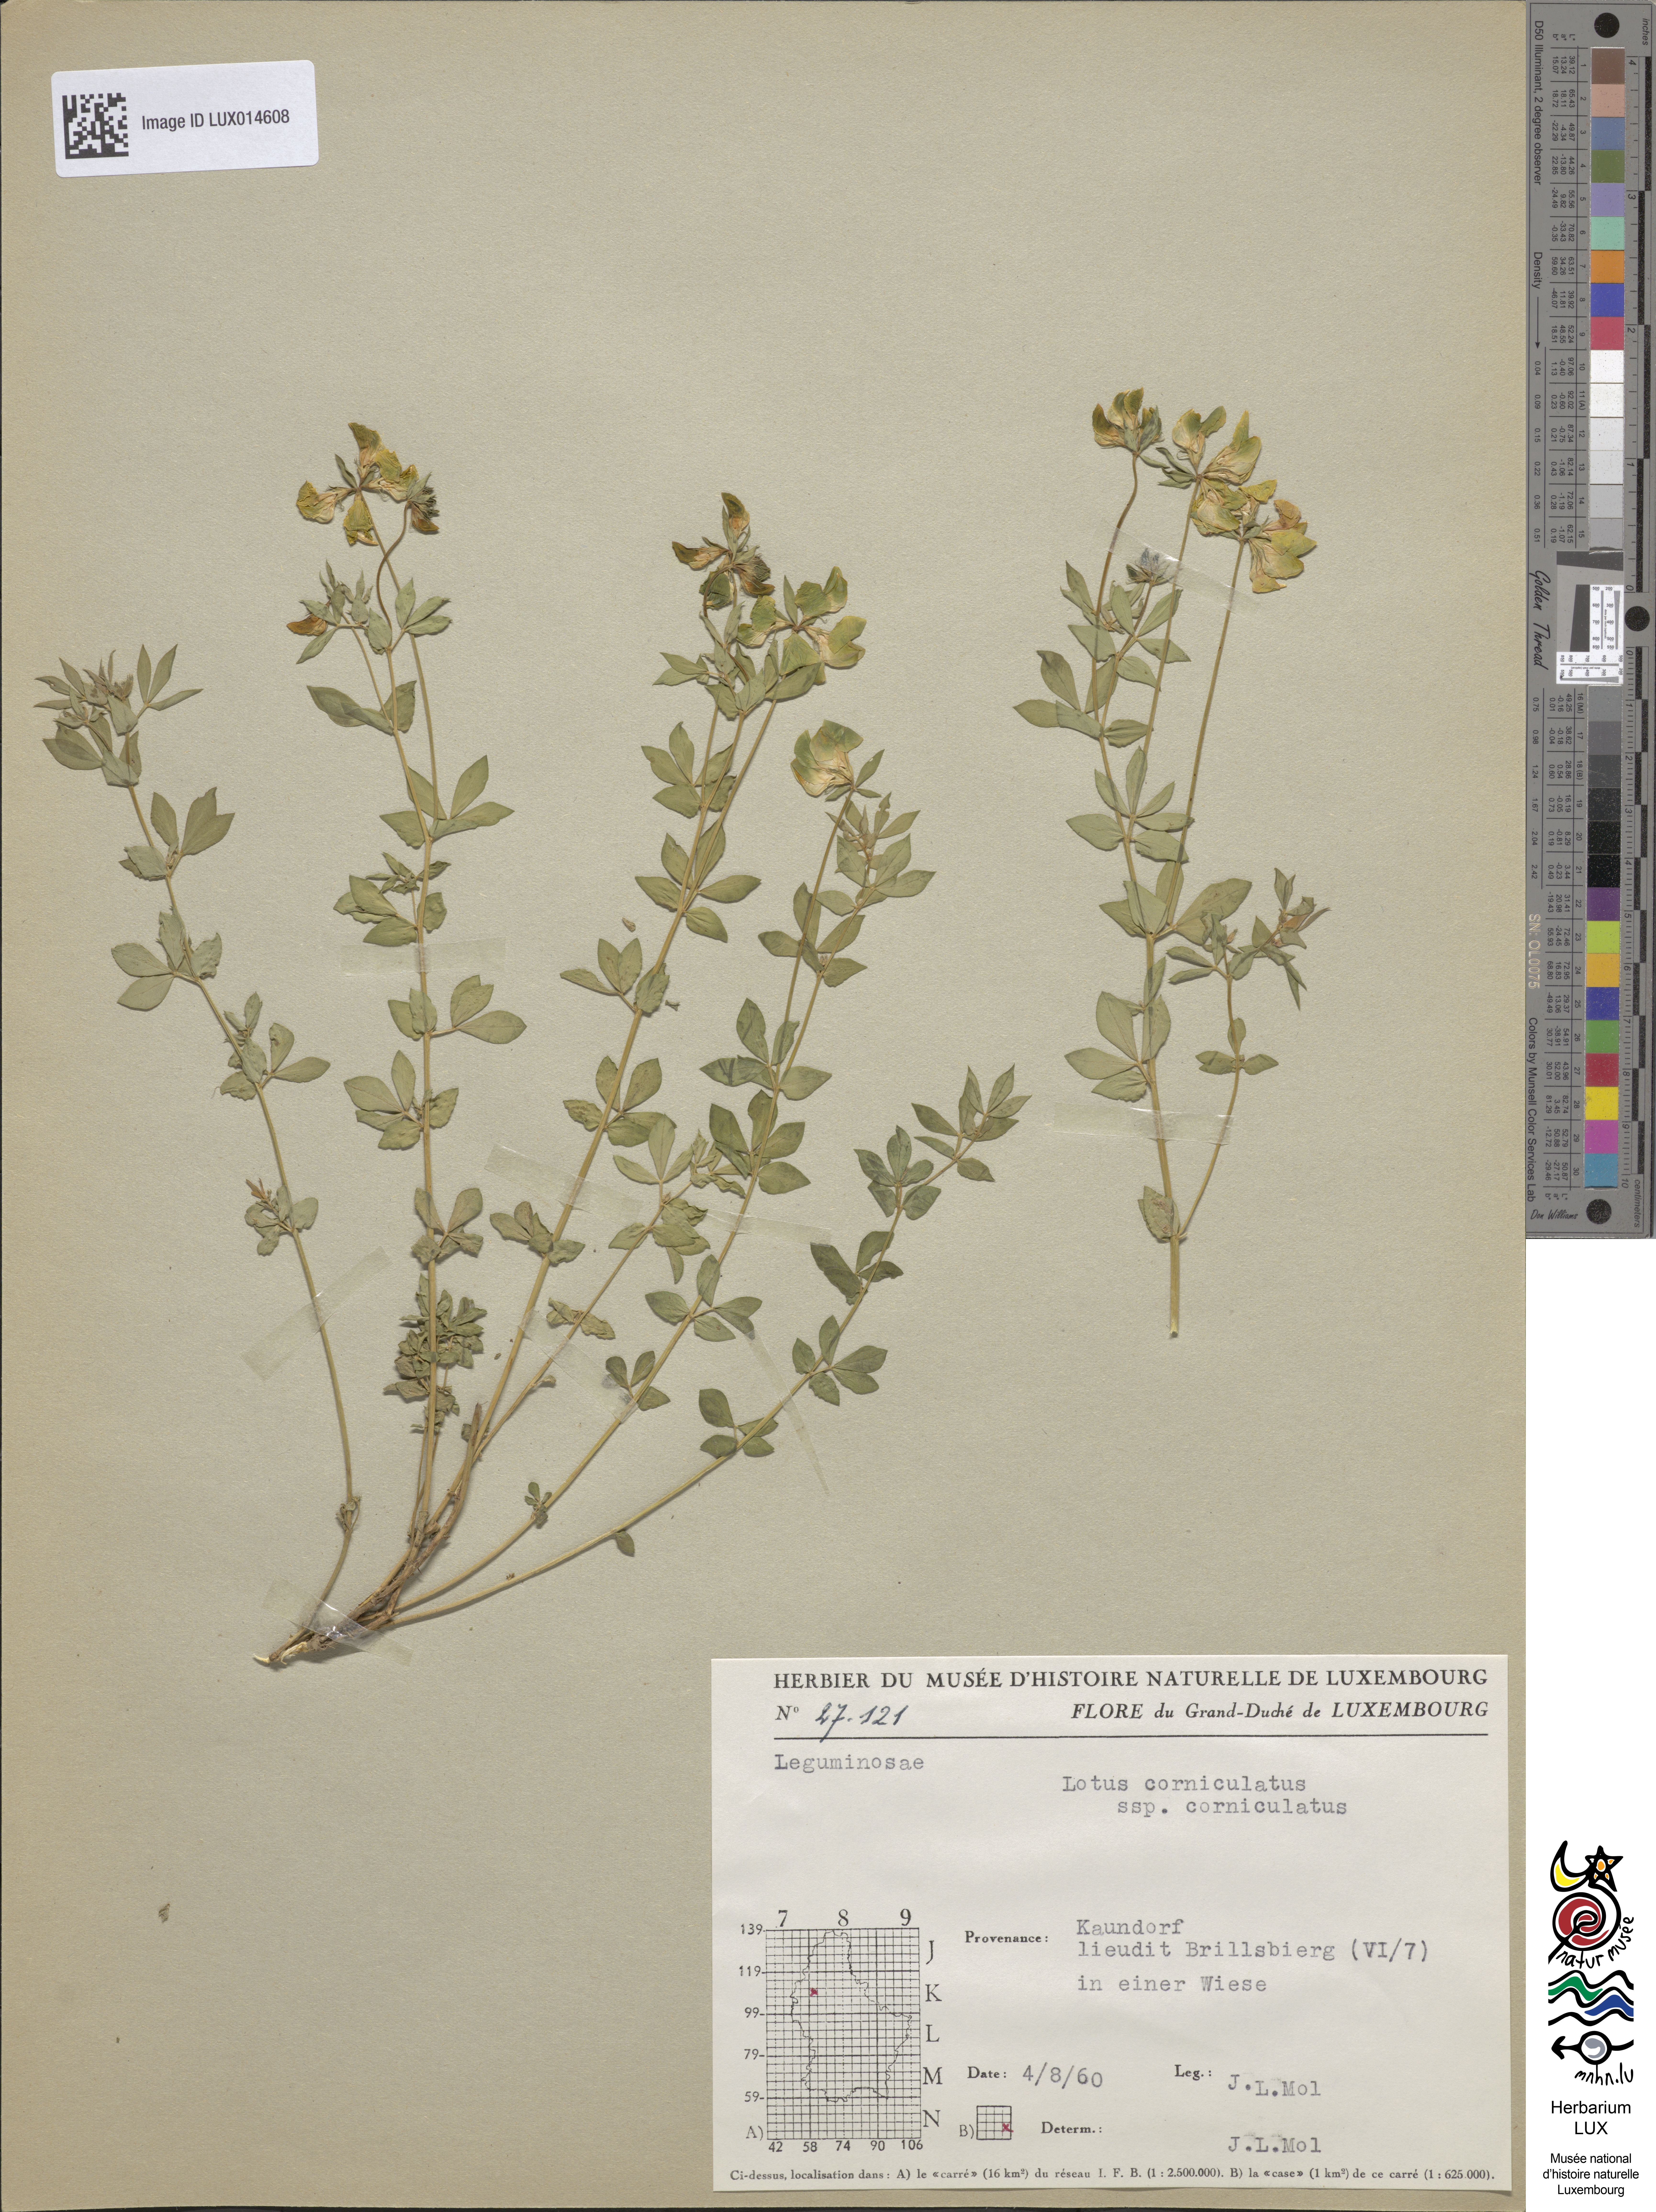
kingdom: Plantae
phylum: Tracheophyta
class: Magnoliopsida
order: Fabales
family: Fabaceae
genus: Lotus
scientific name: Lotus corniculatus
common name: Common bird's-foot-trefoil
